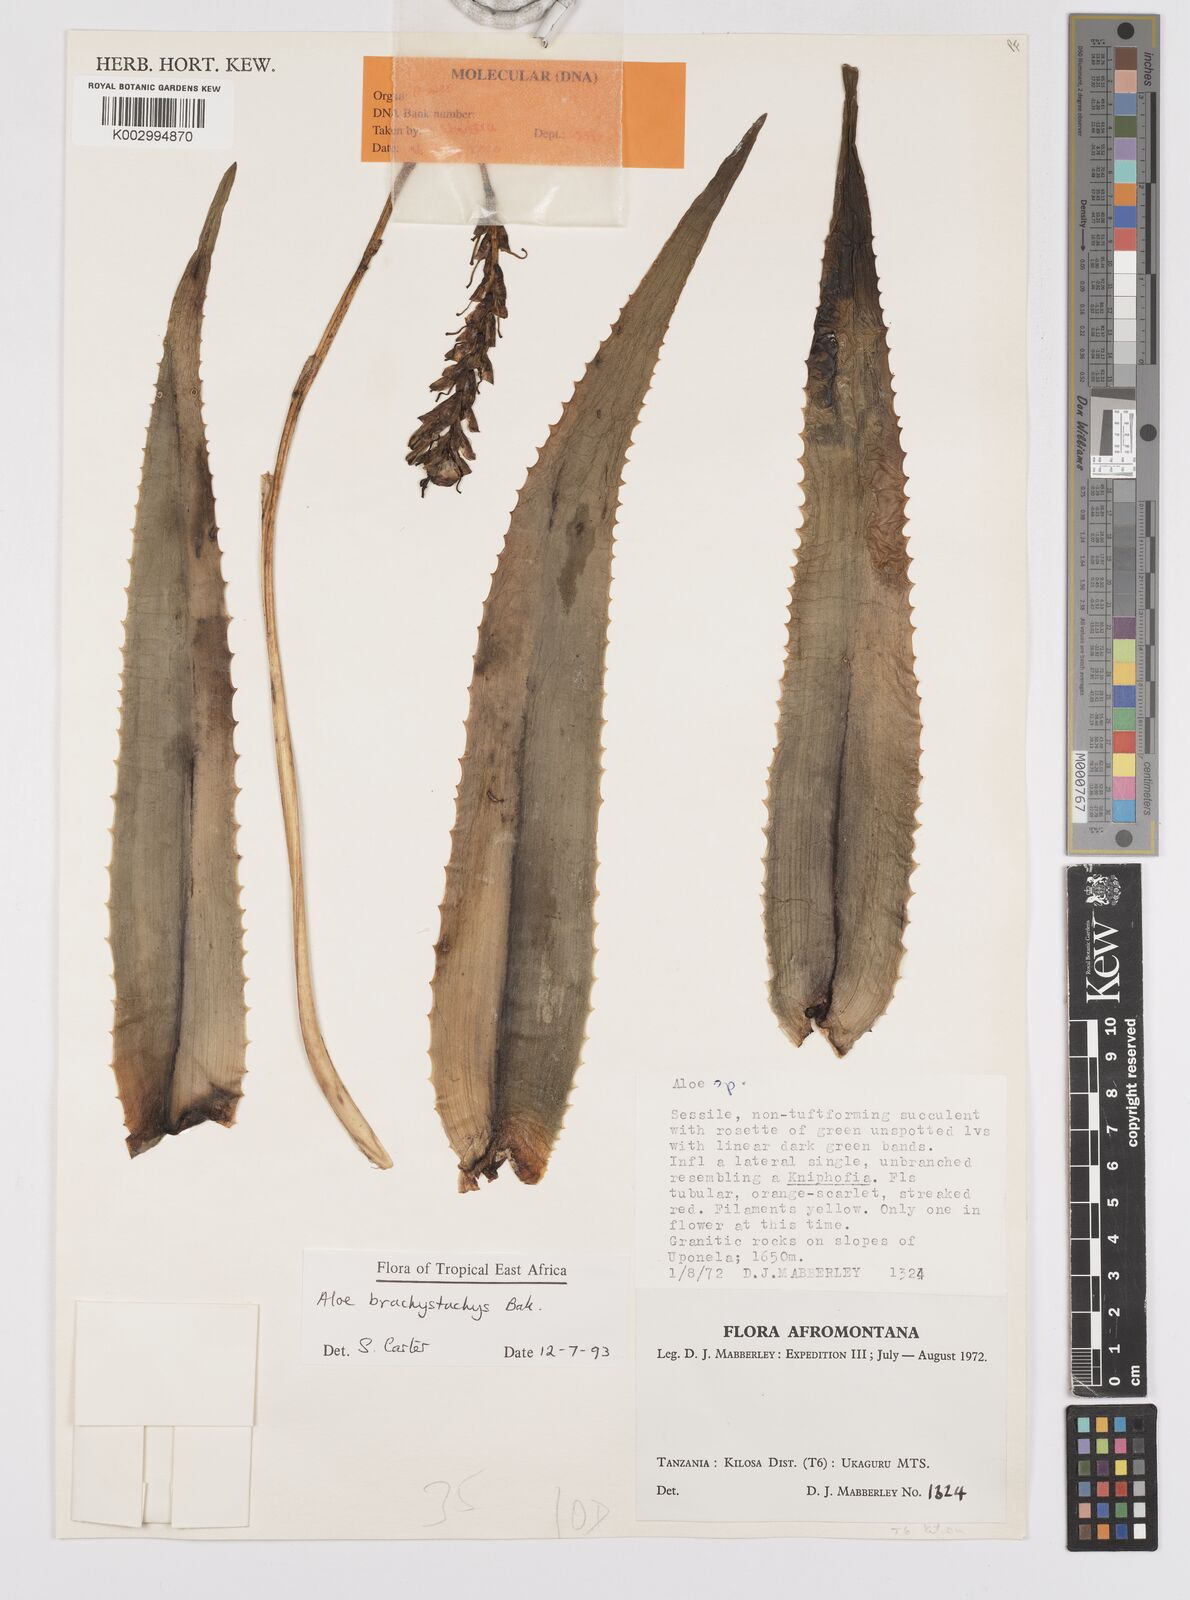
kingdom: Plantae
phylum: Tracheophyta
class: Liliopsida
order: Asparagales
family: Asphodelaceae
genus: Aloe
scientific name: Aloe brachystachys
